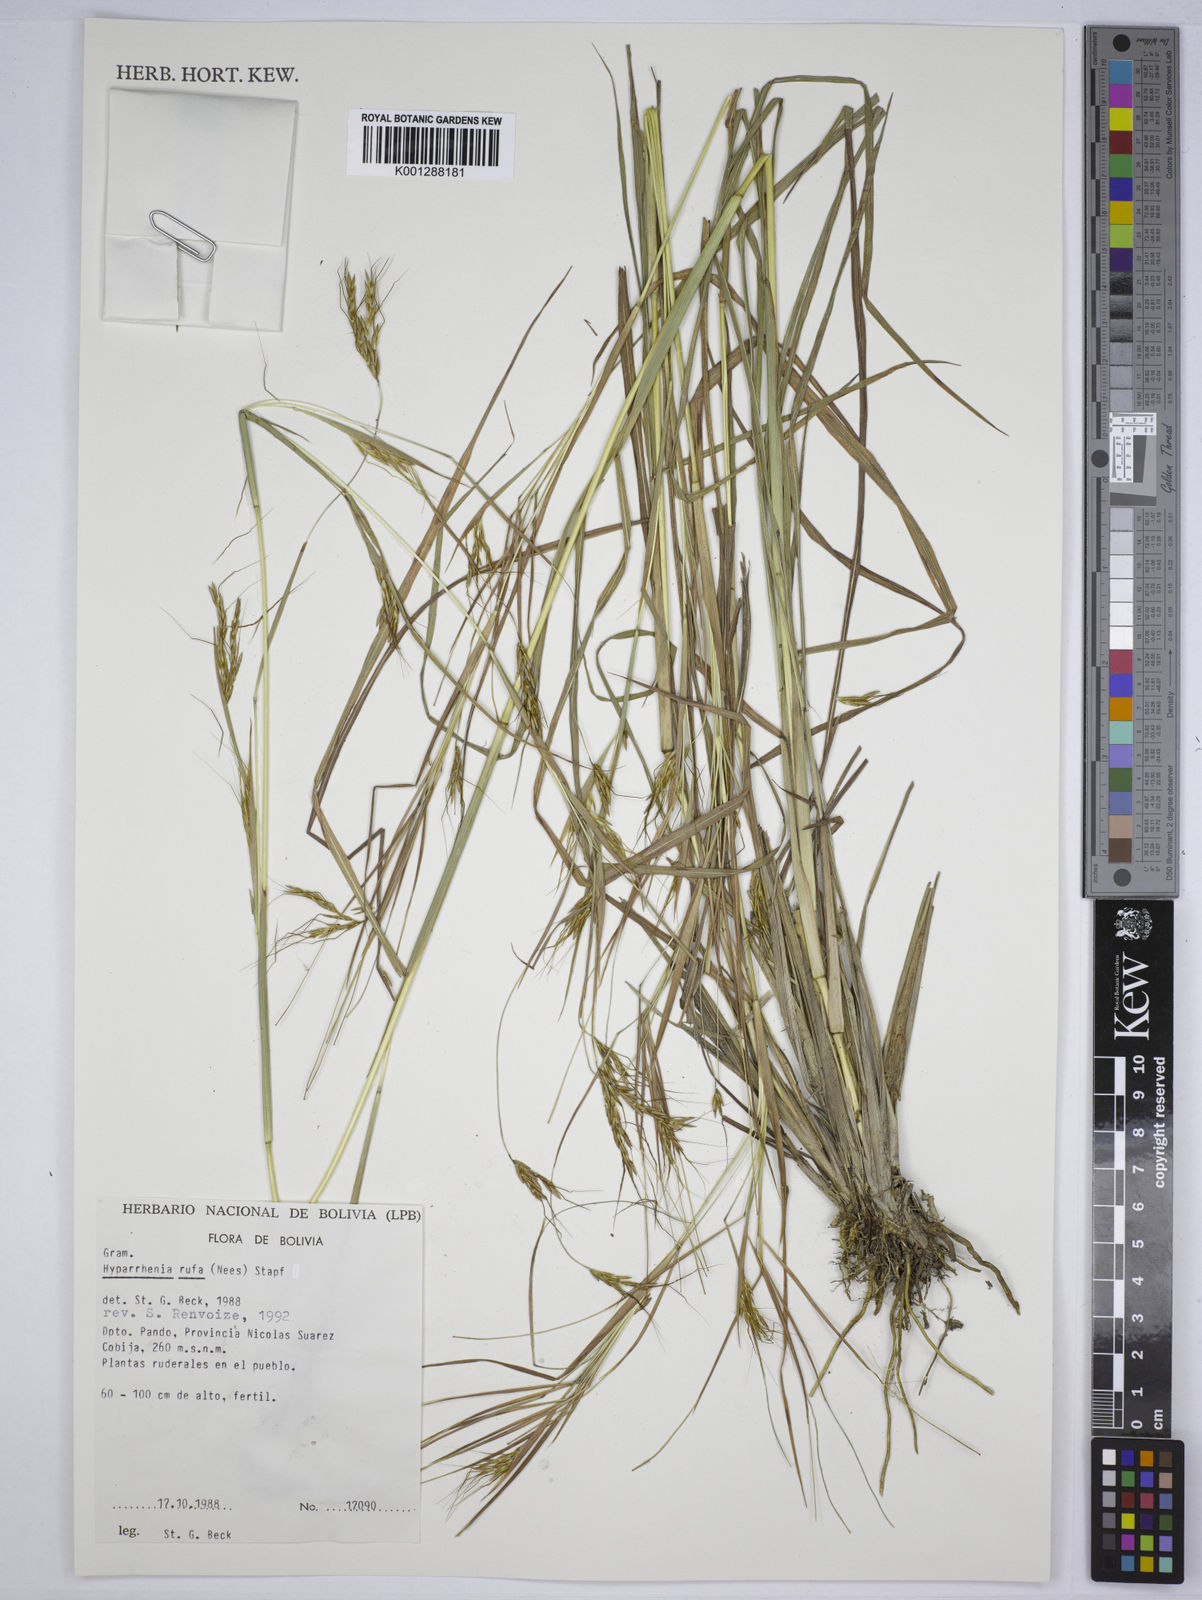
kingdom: Plantae
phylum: Tracheophyta
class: Liliopsida
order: Poales
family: Poaceae
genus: Hyparrhenia
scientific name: Hyparrhenia rufa
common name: Jaraguagrass
